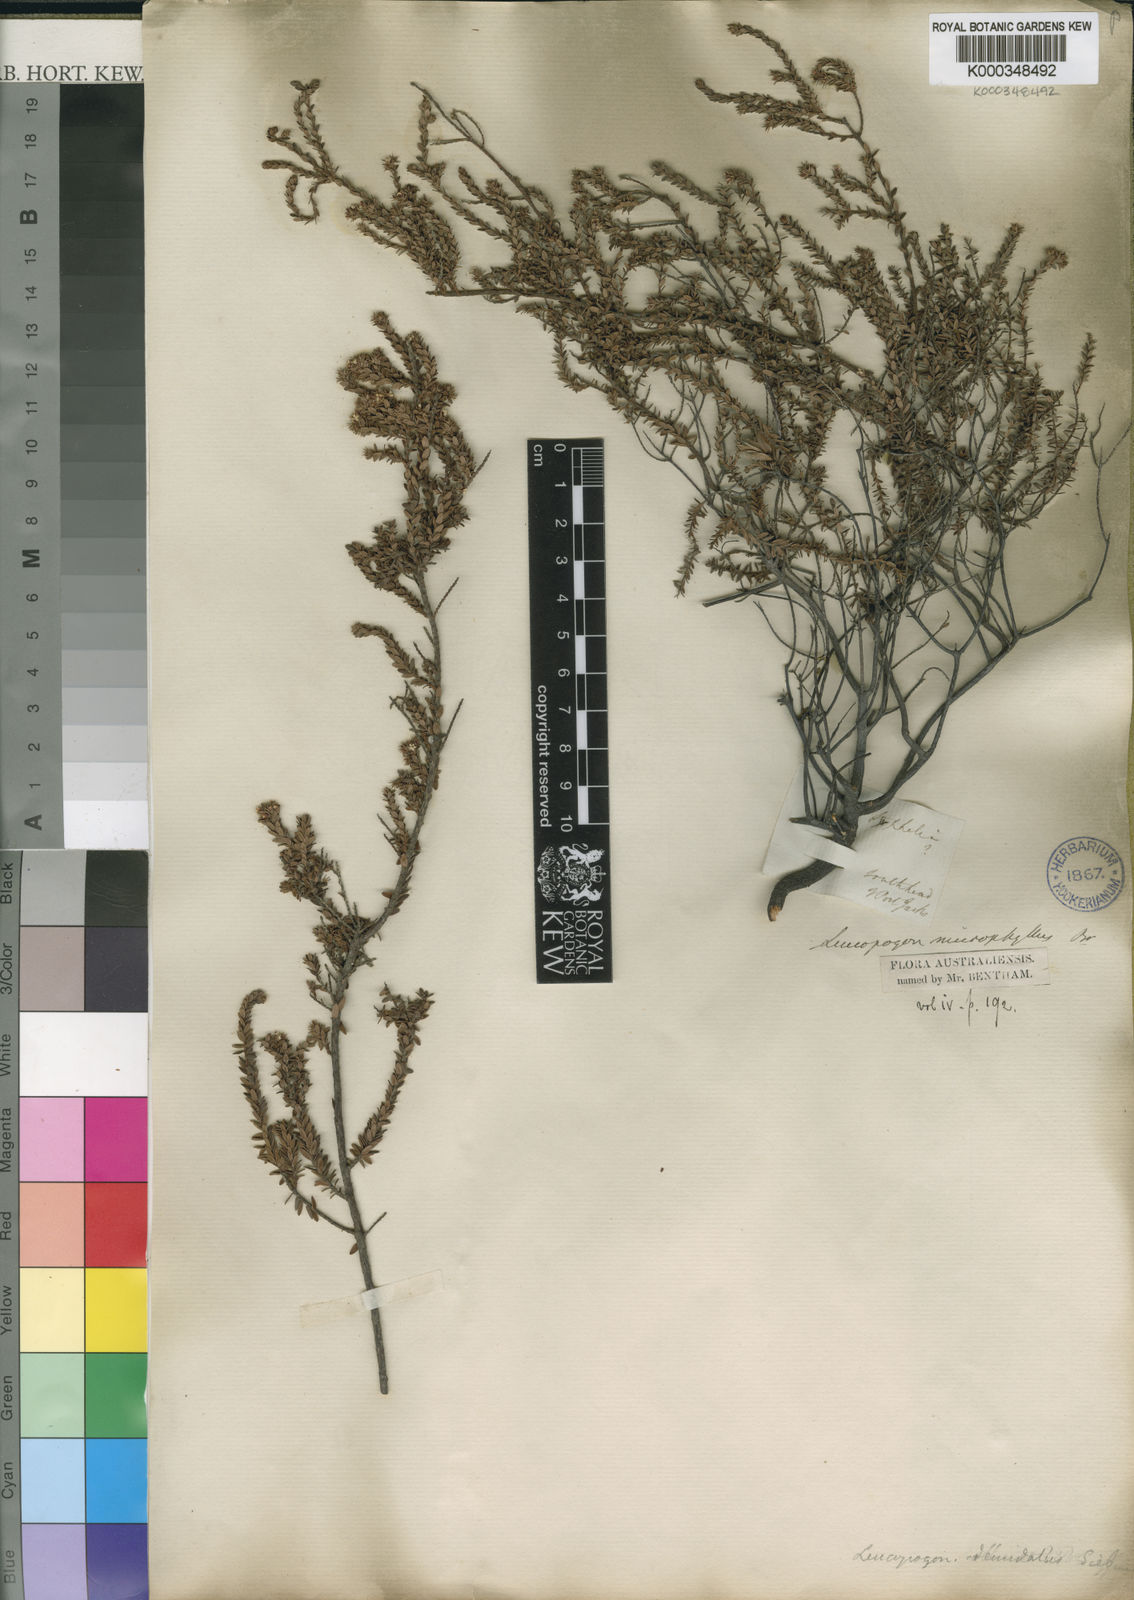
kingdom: Plantae
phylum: Tracheophyta
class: Magnoliopsida
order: Ericales
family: Ericaceae
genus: Leucopogon
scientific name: Leucopogon microphyllus
